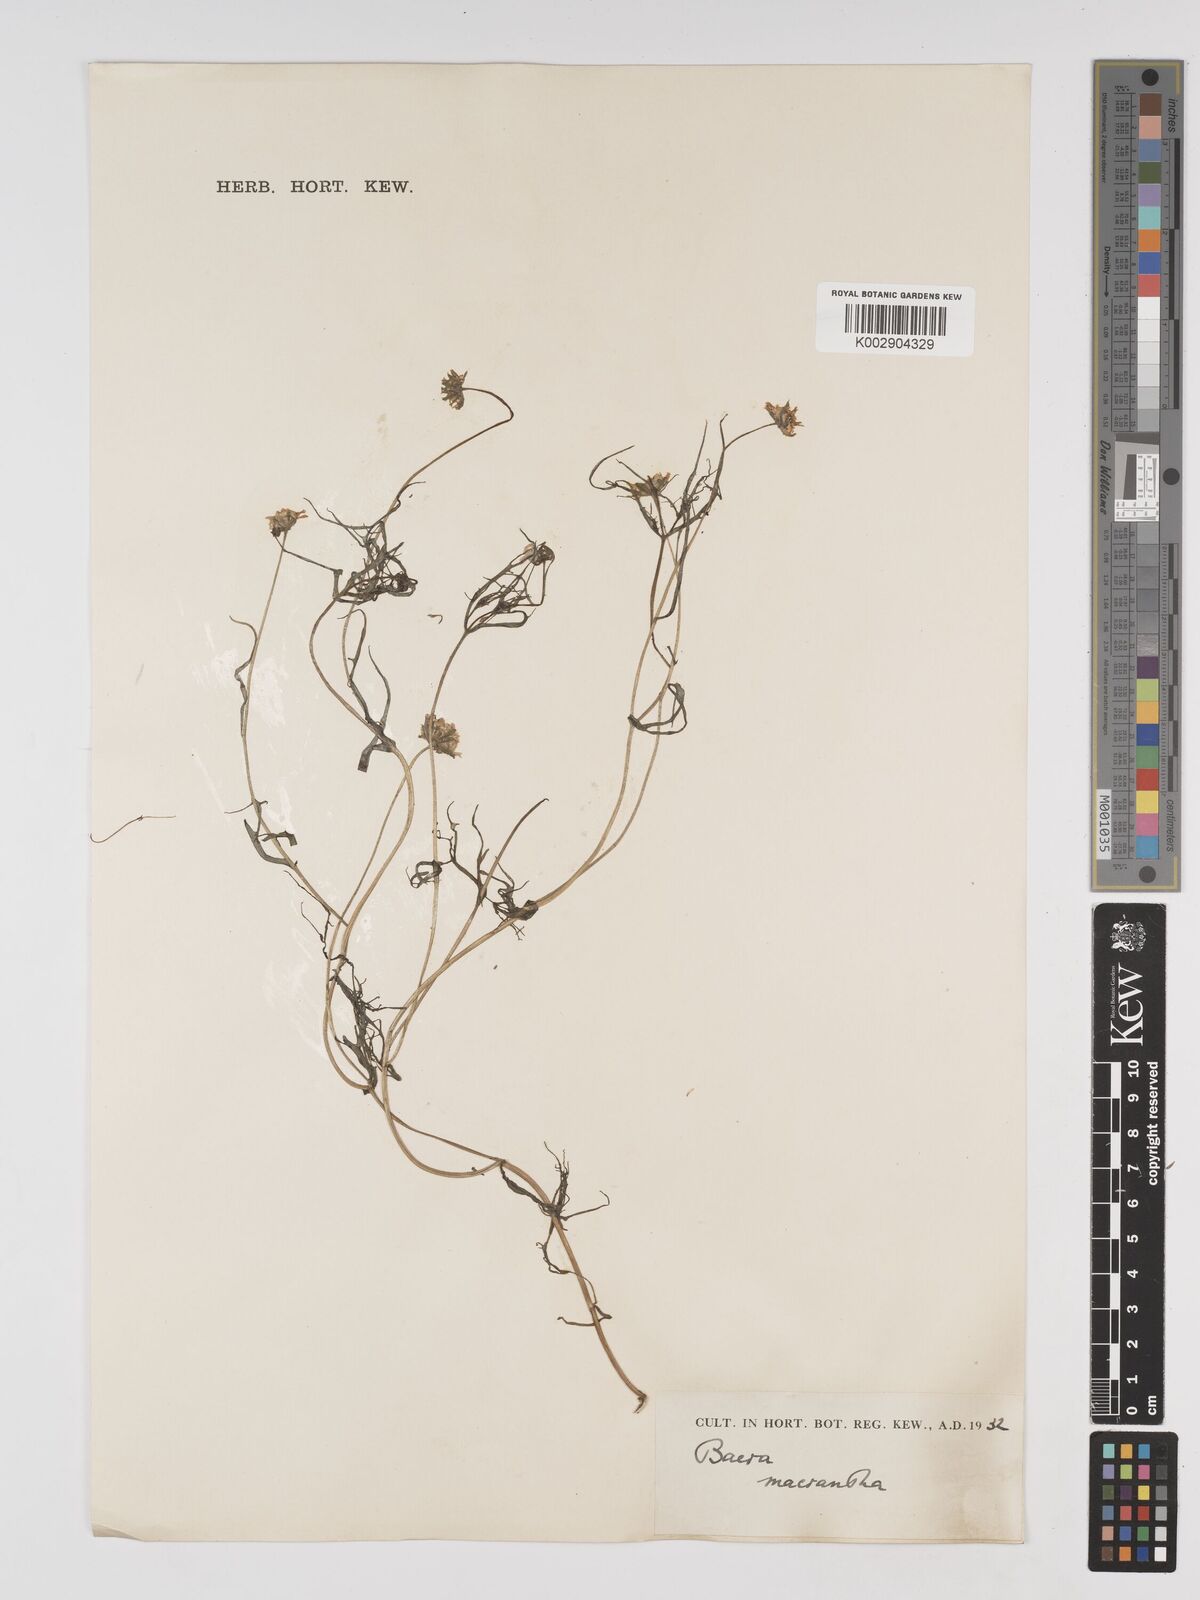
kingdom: Plantae
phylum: Tracheophyta
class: Magnoliopsida
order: Asterales
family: Asteraceae
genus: Lasthenia
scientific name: Lasthenia californica
